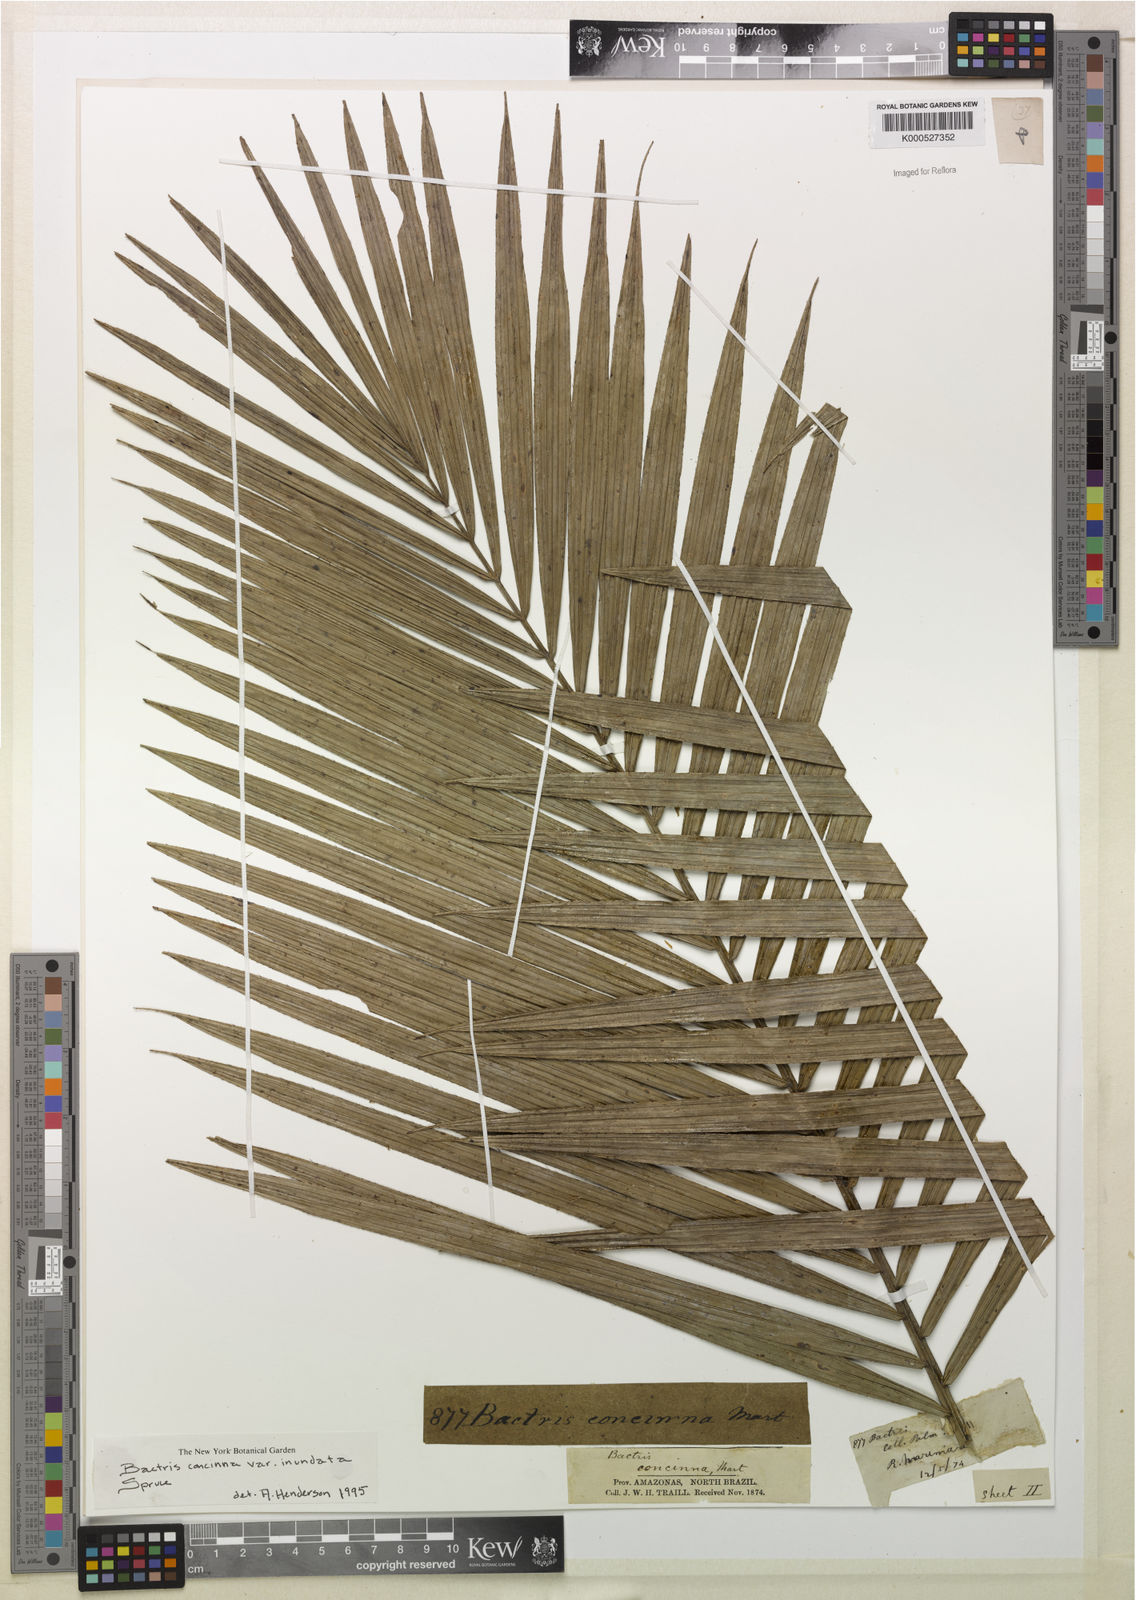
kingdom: Plantae
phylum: Tracheophyta
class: Liliopsida
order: Arecales
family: Arecaceae
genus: Bactris
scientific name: Bactris concinna
